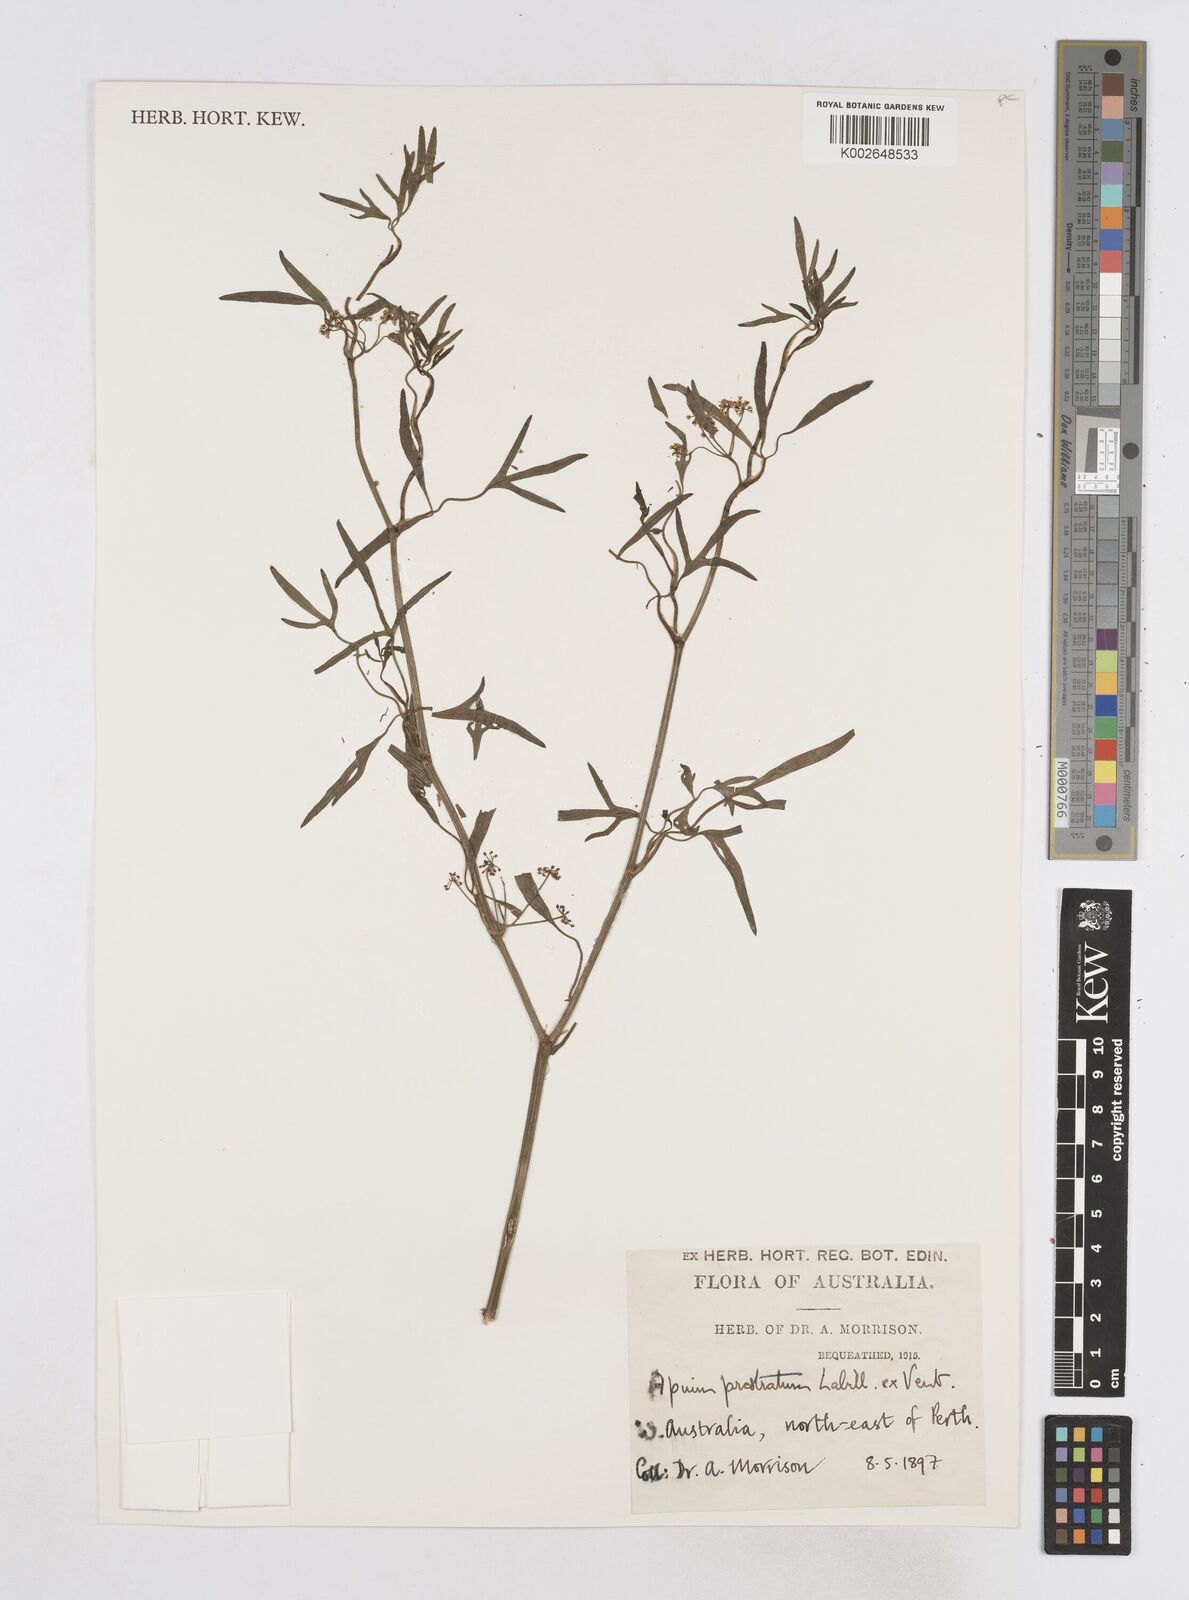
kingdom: Plantae
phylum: Tracheophyta
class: Magnoliopsida
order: Apiales
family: Apiaceae
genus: Apium
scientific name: Apium prostratum
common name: Prostrate marshwort
